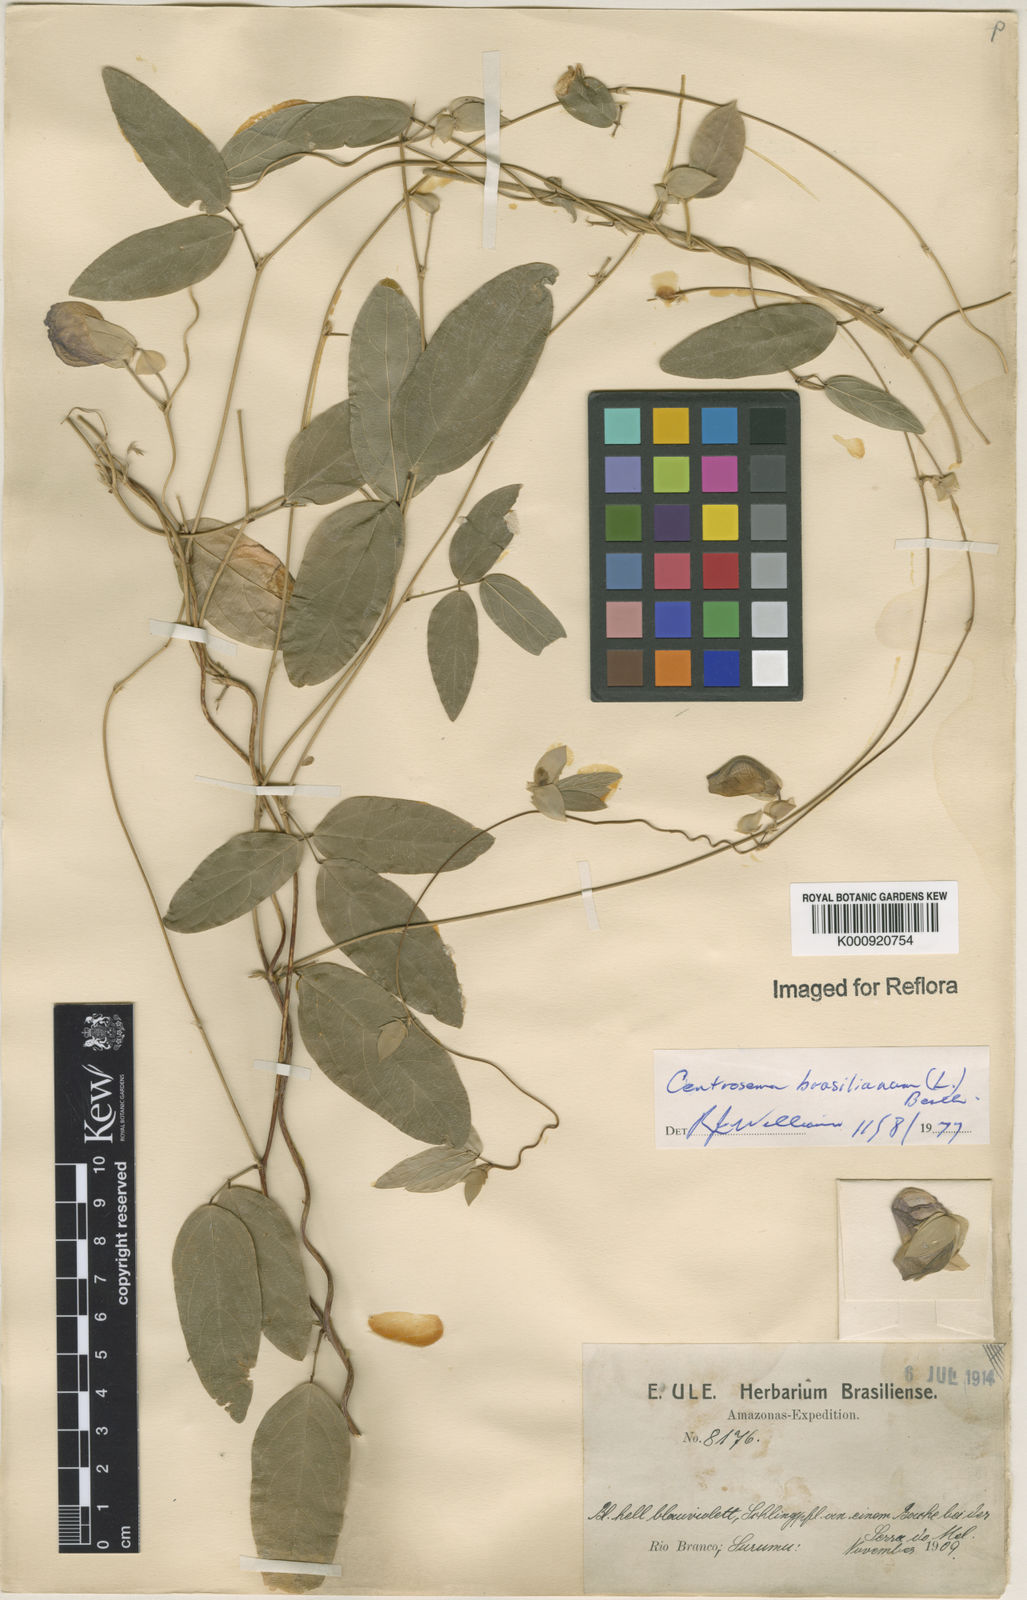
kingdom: Plantae
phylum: Tracheophyta
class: Magnoliopsida
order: Fabales
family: Fabaceae
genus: Centrosema
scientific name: Centrosema brasilianum
